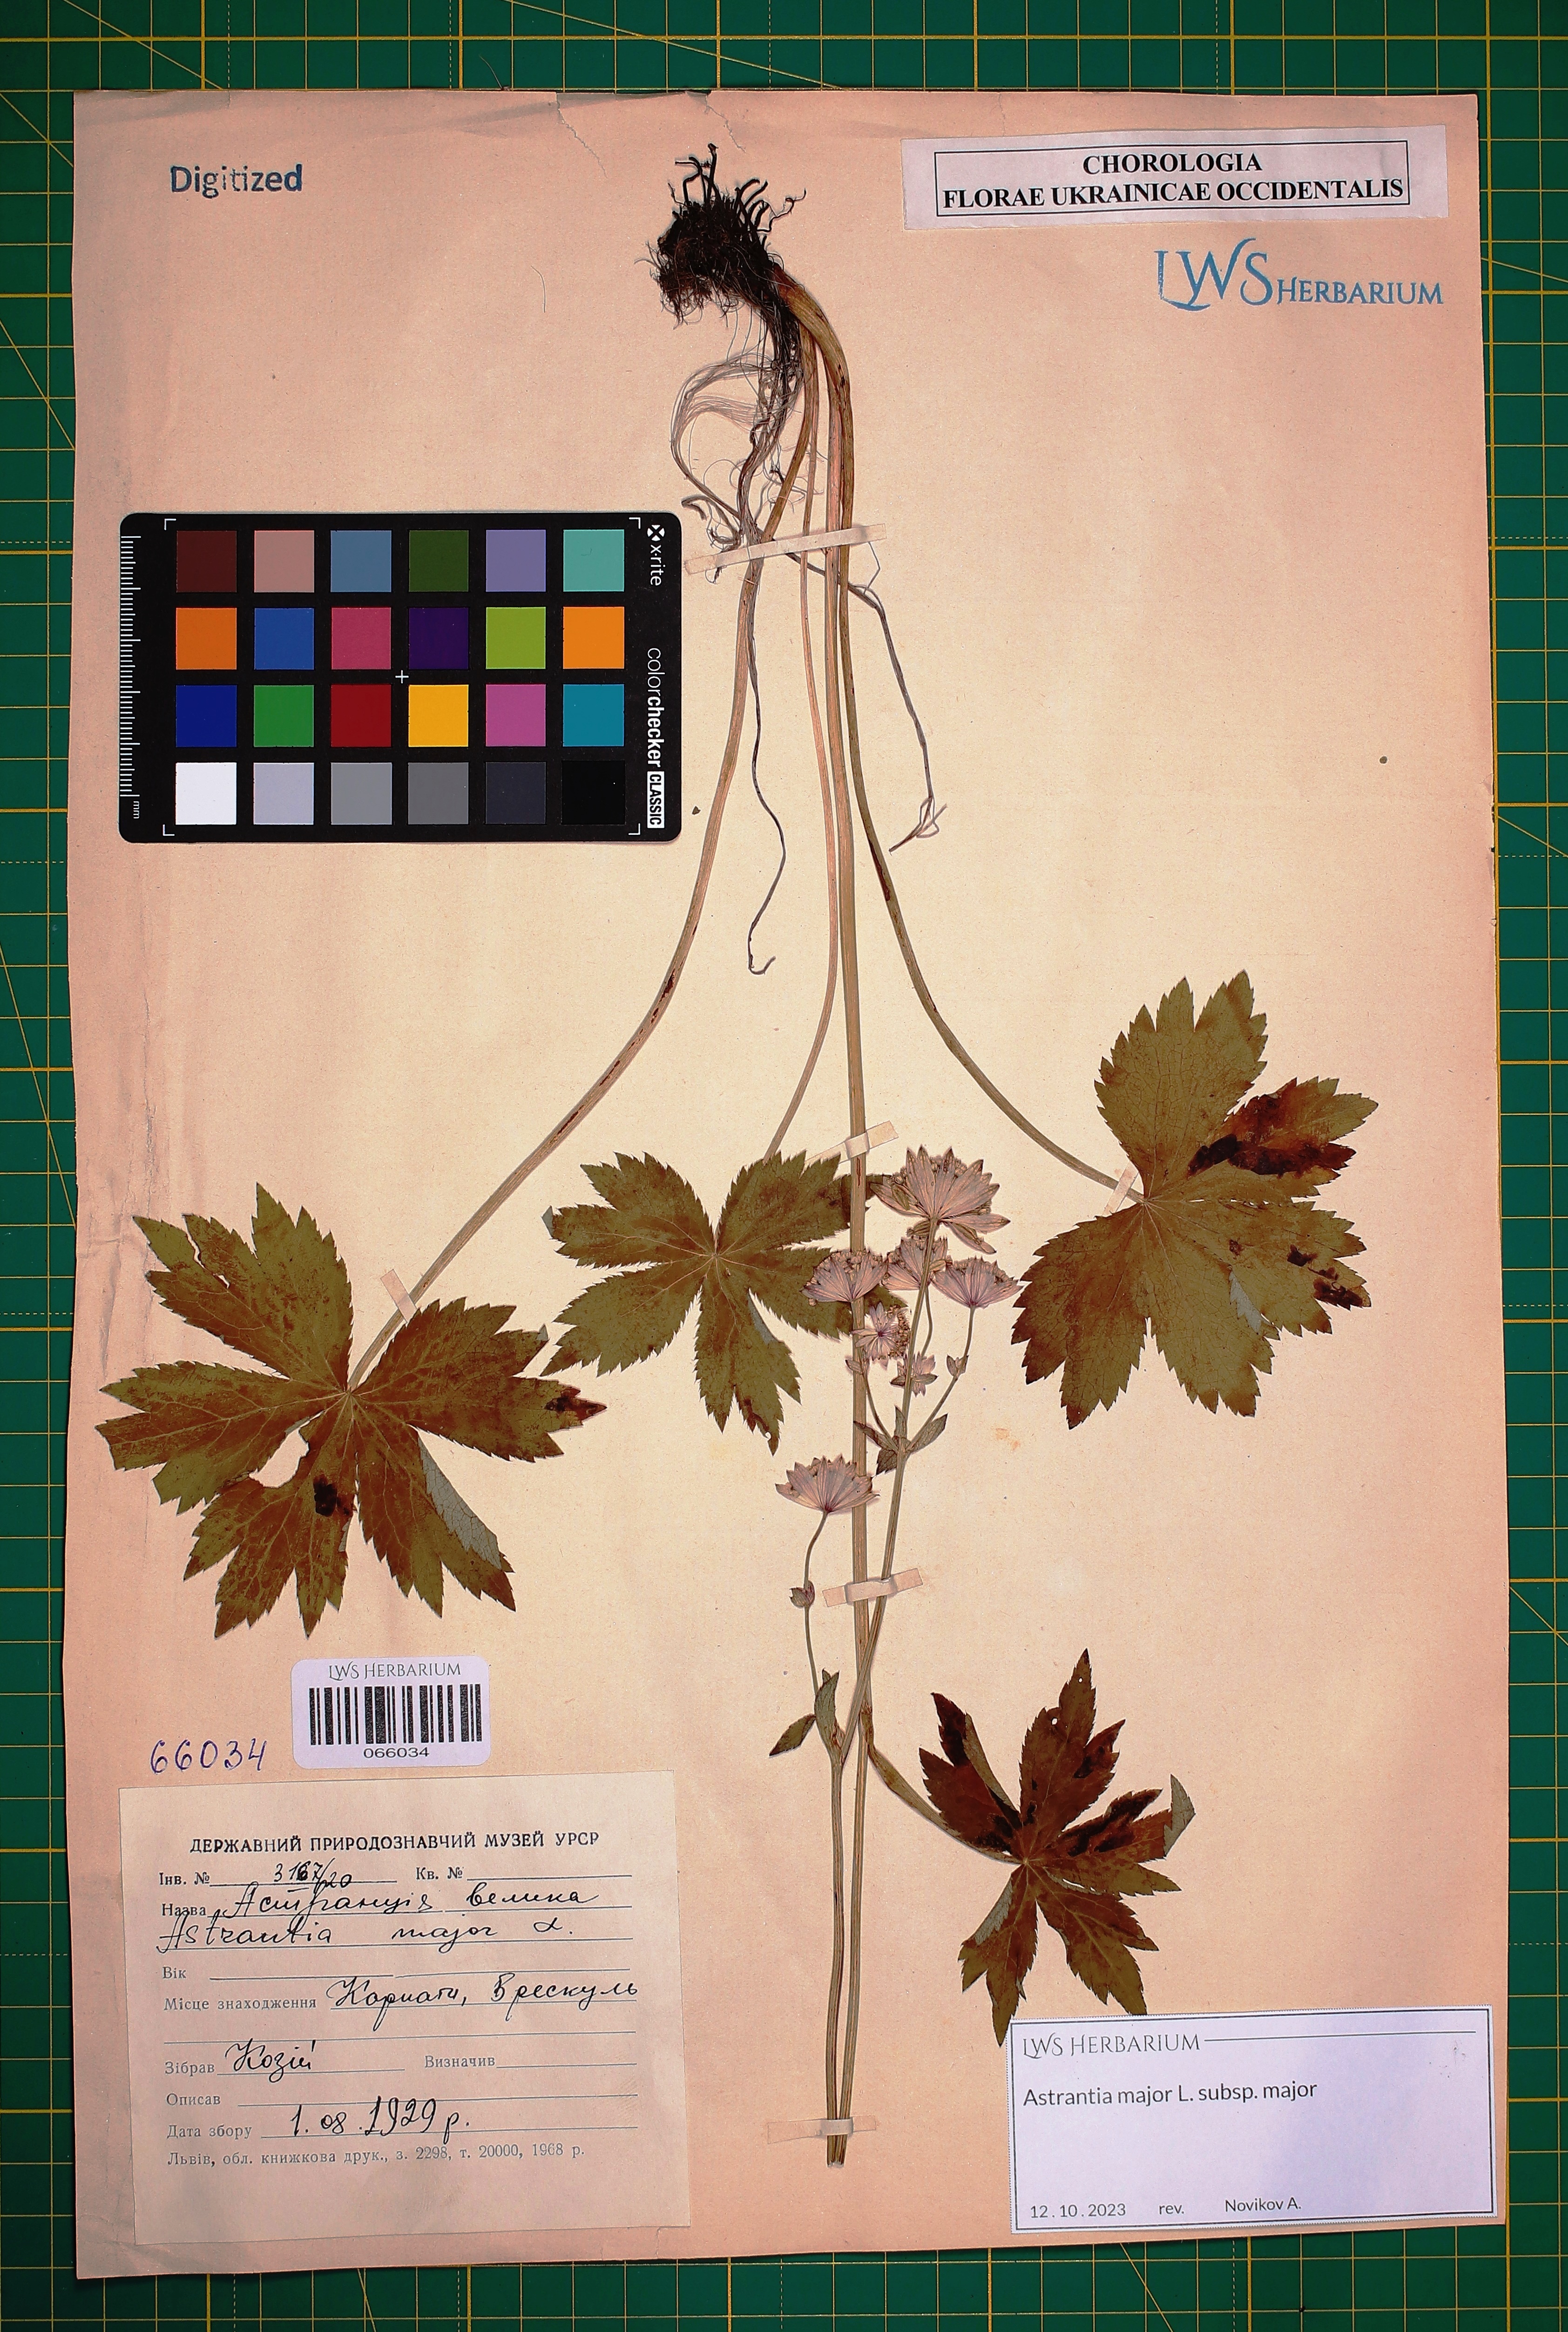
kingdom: Plantae
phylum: Tracheophyta
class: Magnoliopsida
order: Apiales
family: Apiaceae
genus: Astrantia
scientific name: Astrantia major
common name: Greater masterwort
